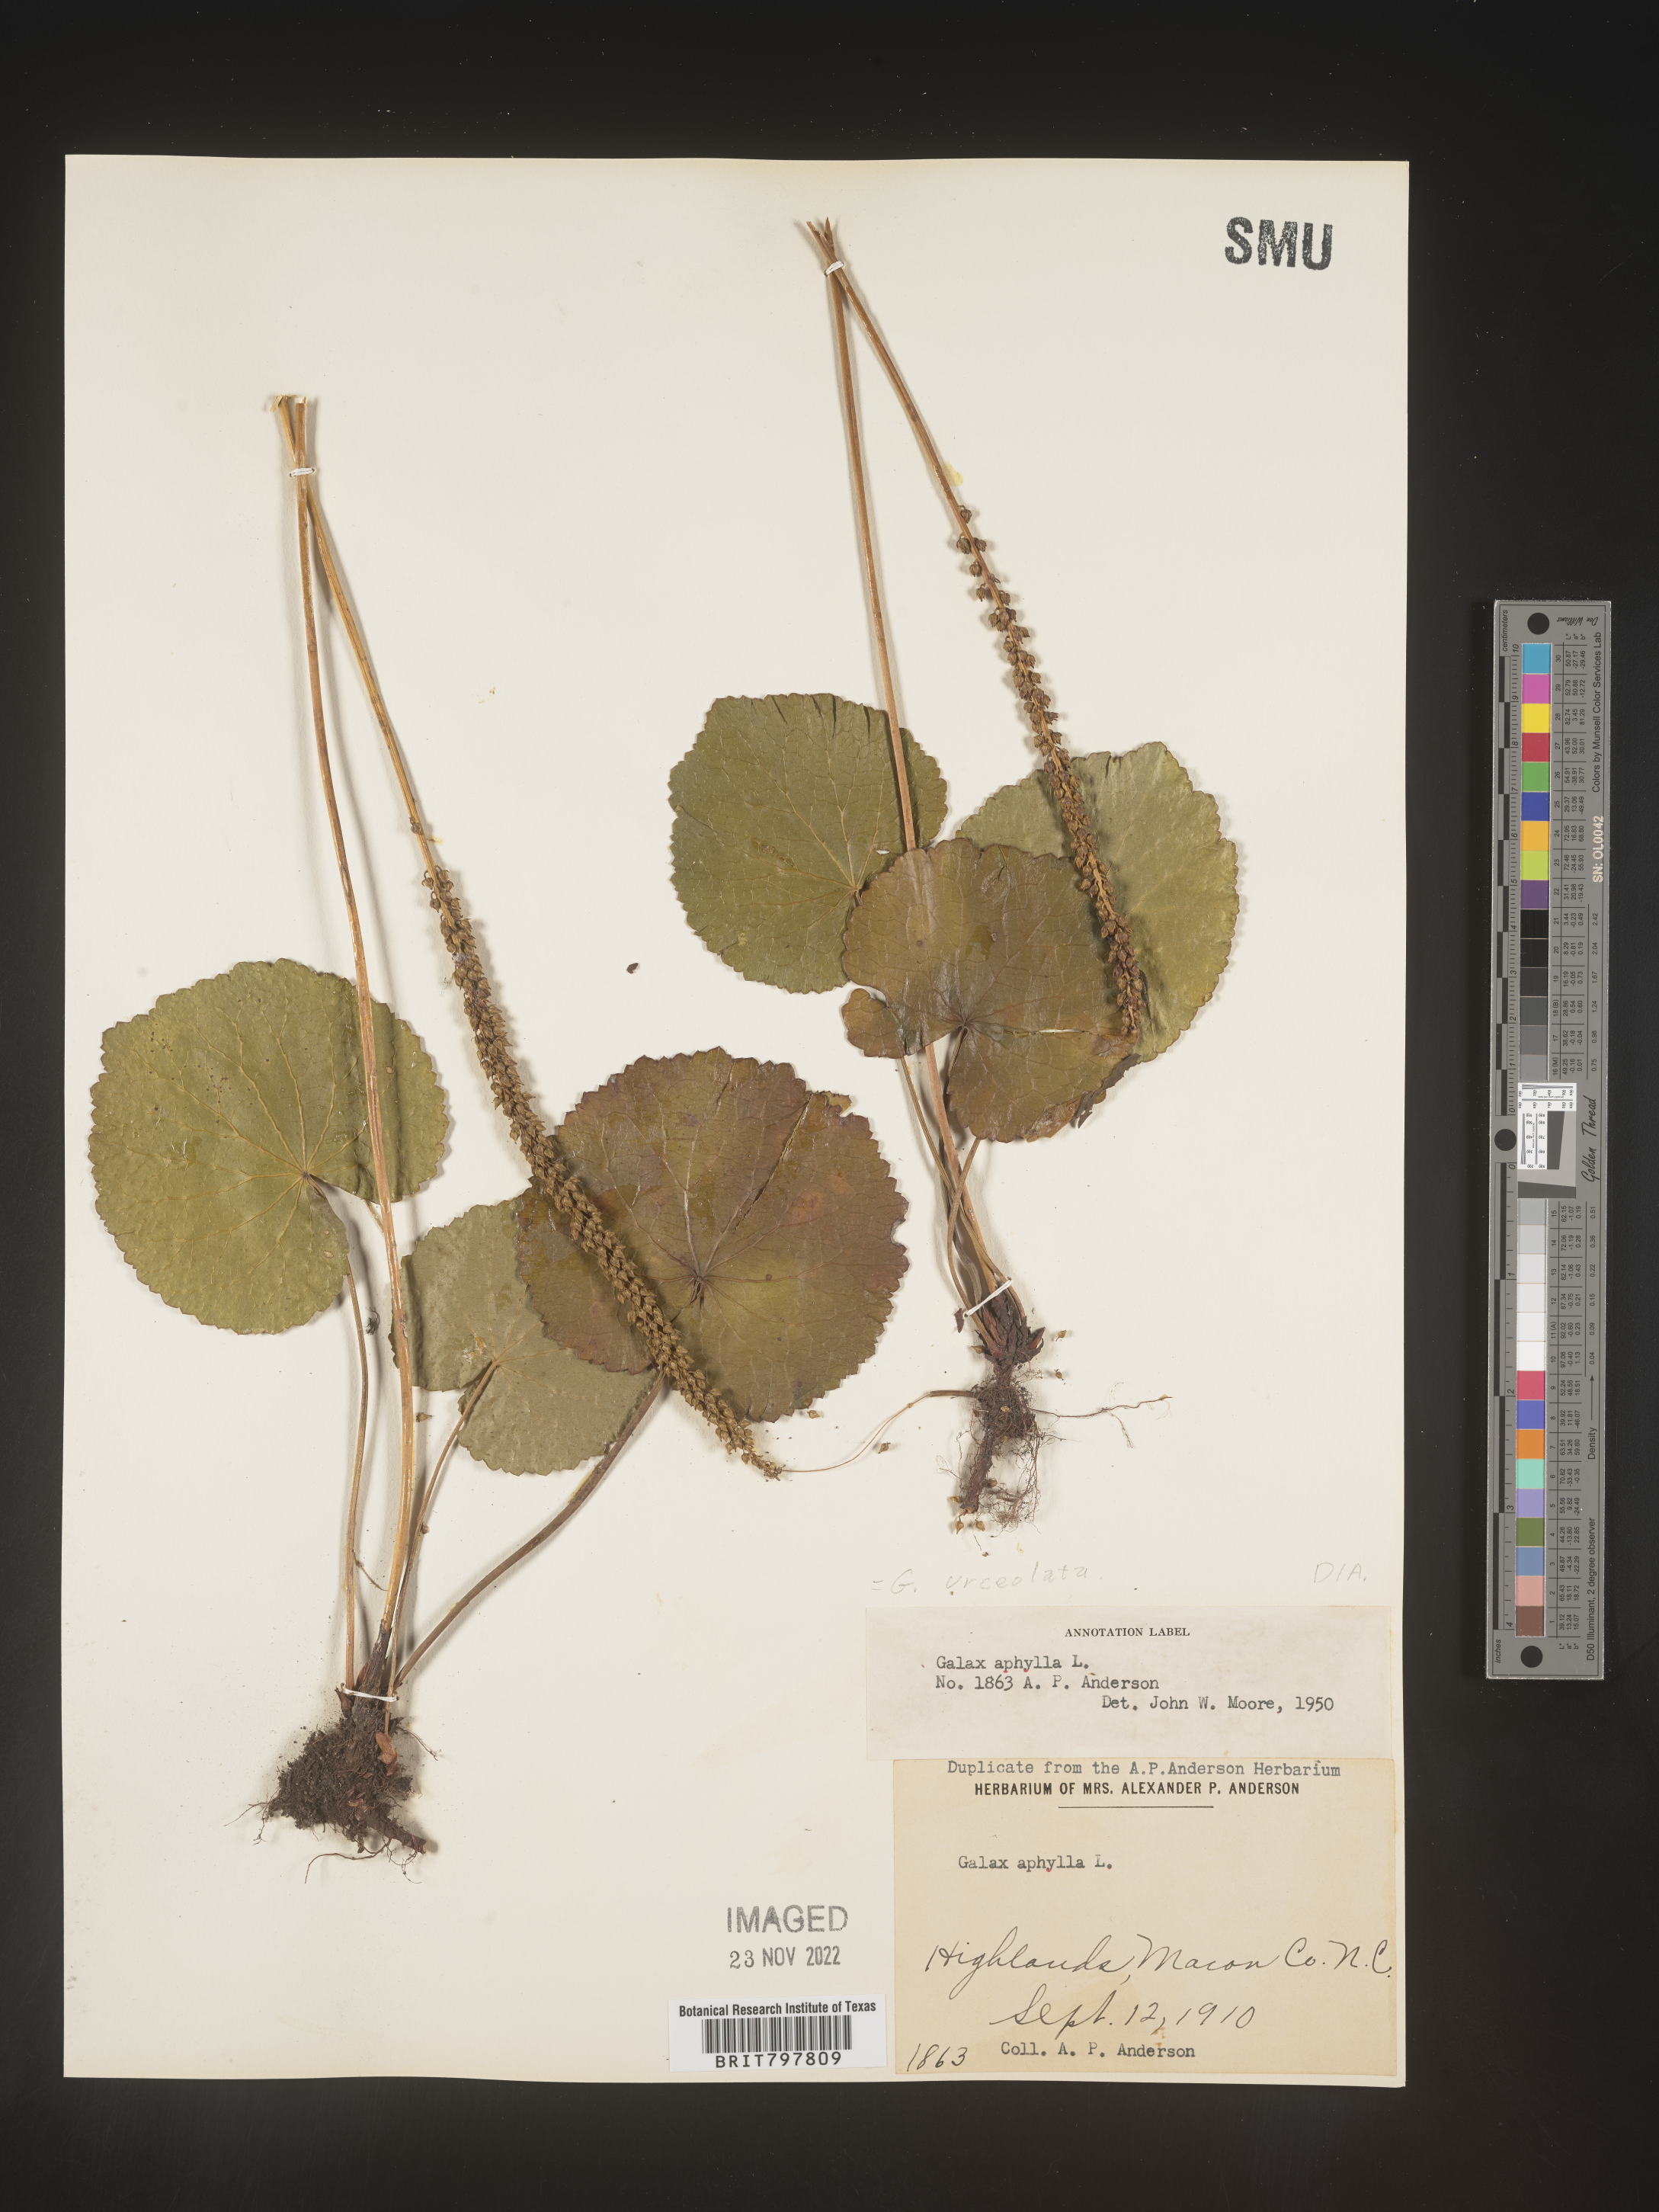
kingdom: Plantae
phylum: Tracheophyta
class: Magnoliopsida
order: Ericales
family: Diapensiaceae
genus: Galax
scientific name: Galax
